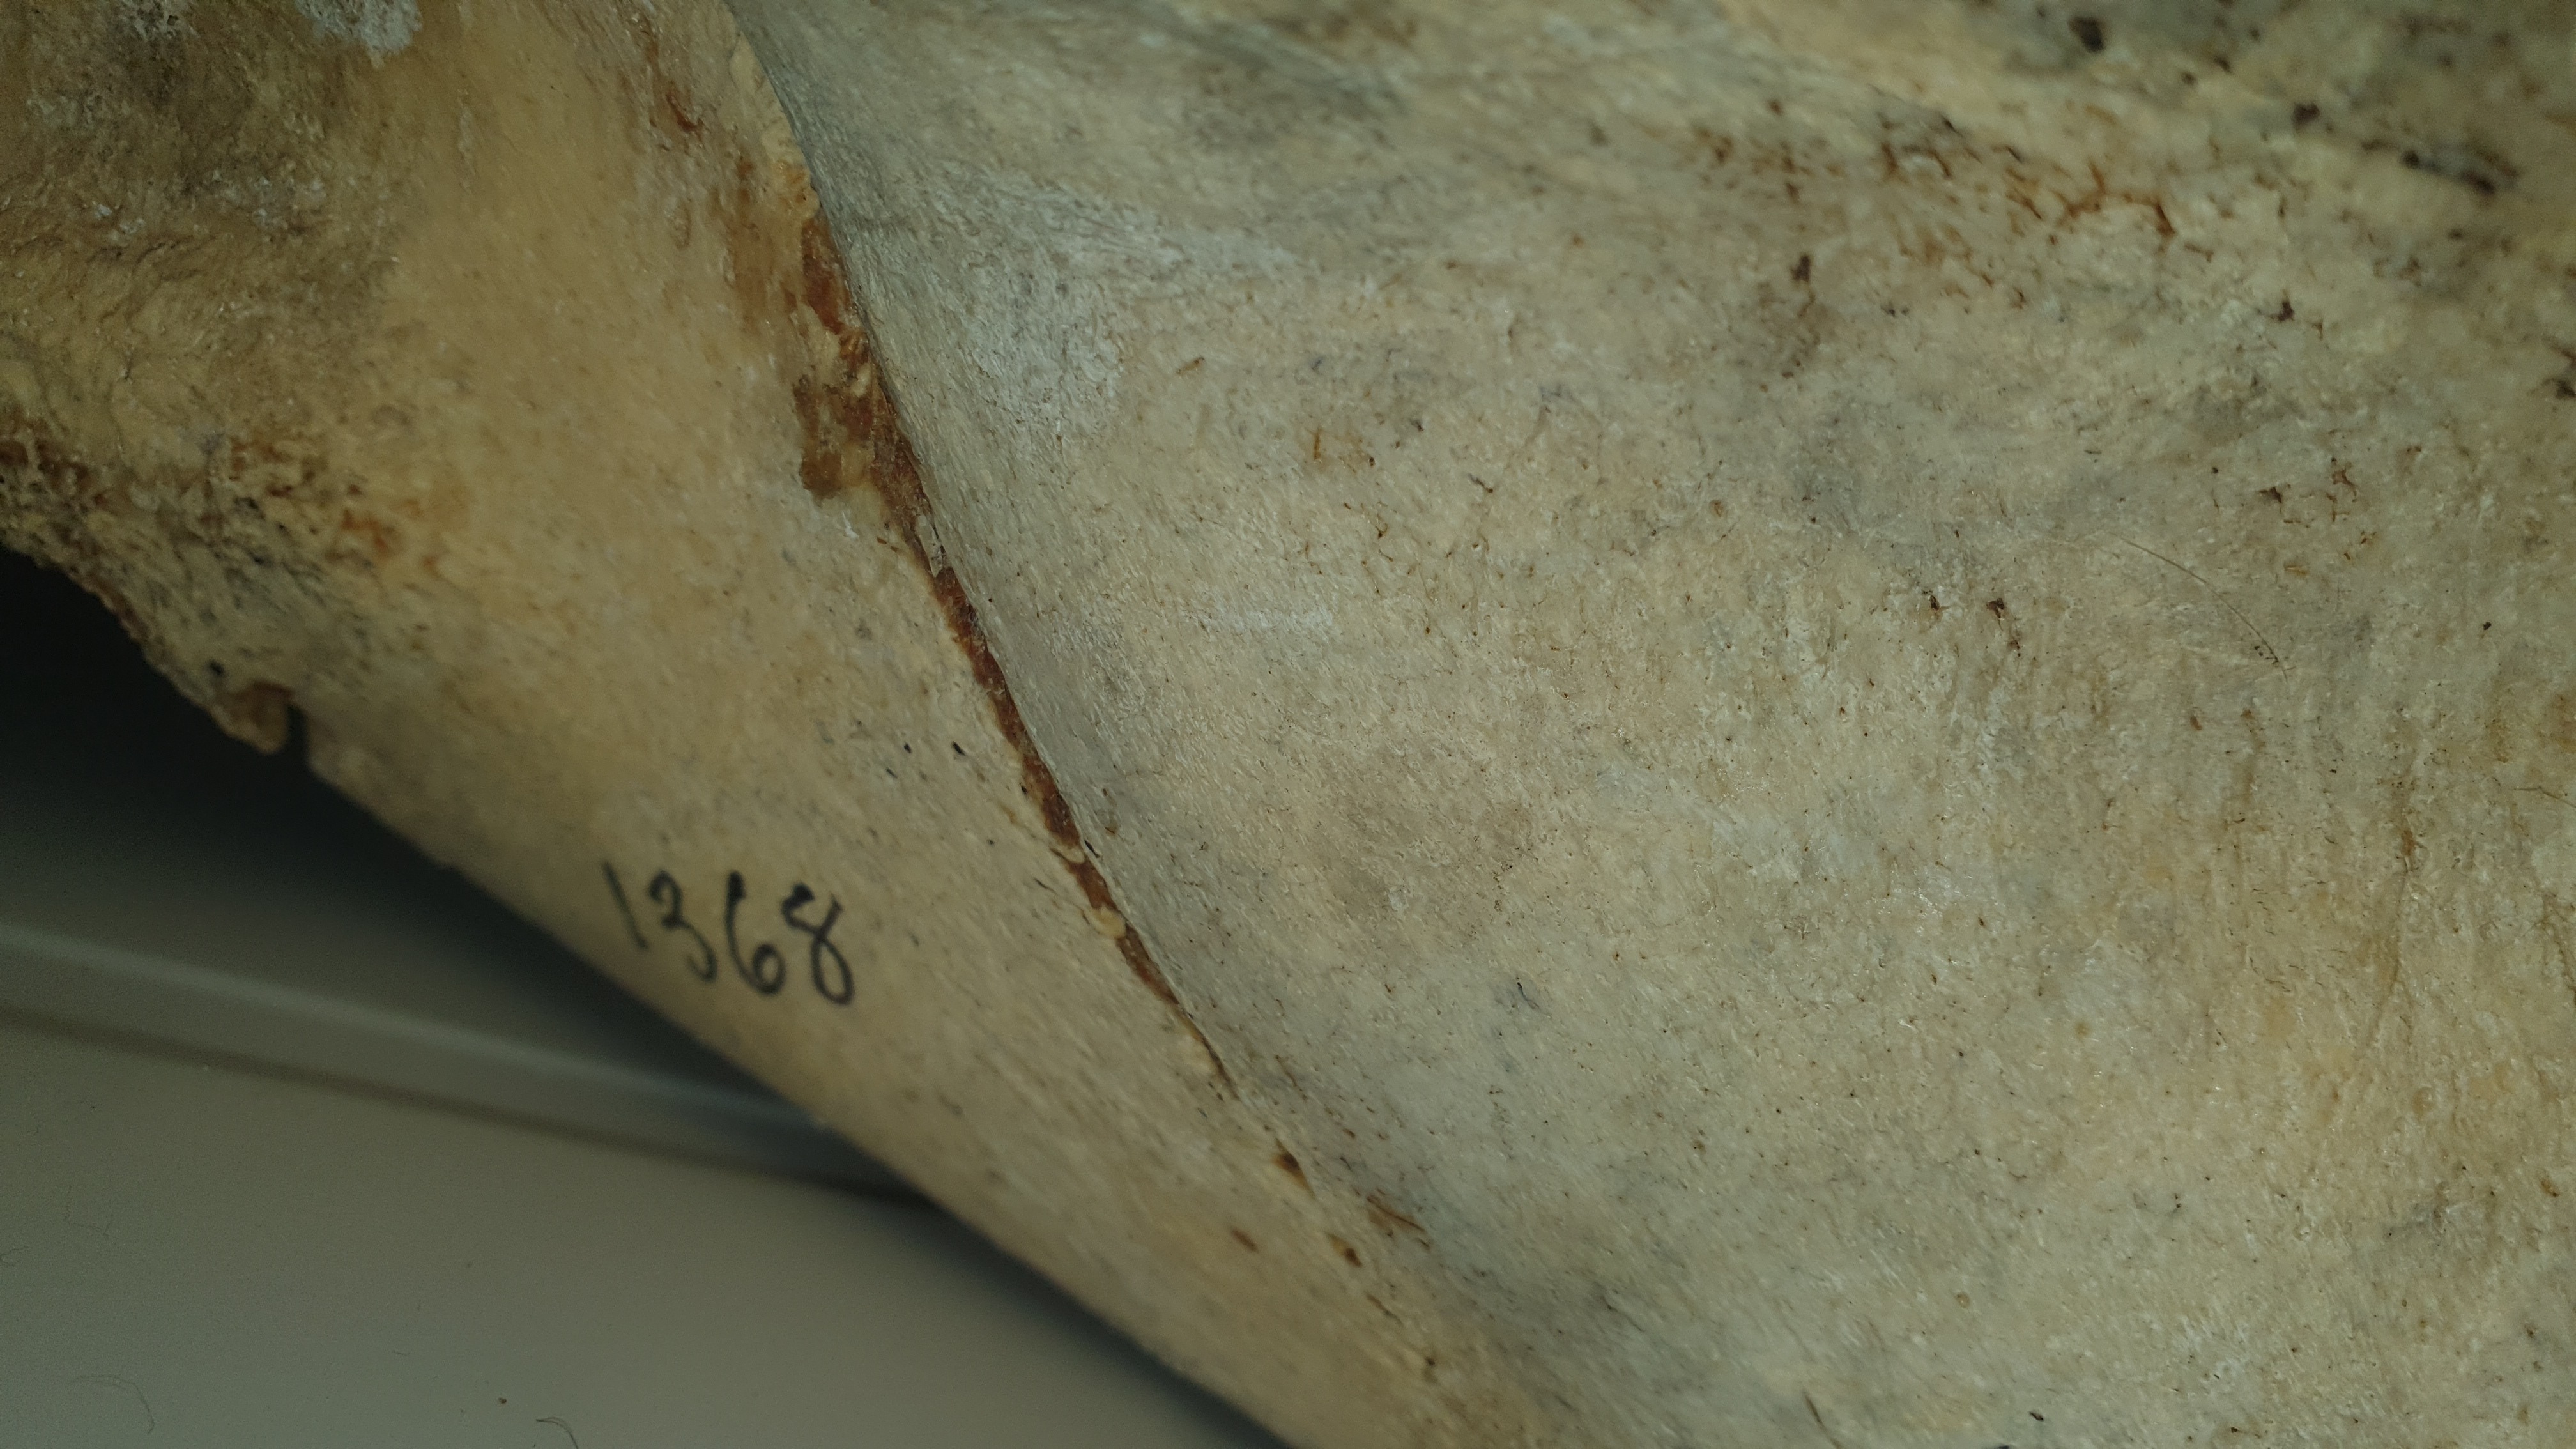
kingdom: Animalia
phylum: Chordata
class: Mammalia
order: Artiodactyla
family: Hippopotamidae
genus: Hippopotamus
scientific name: Hippopotamus amphibius
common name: Common hippopotamus
